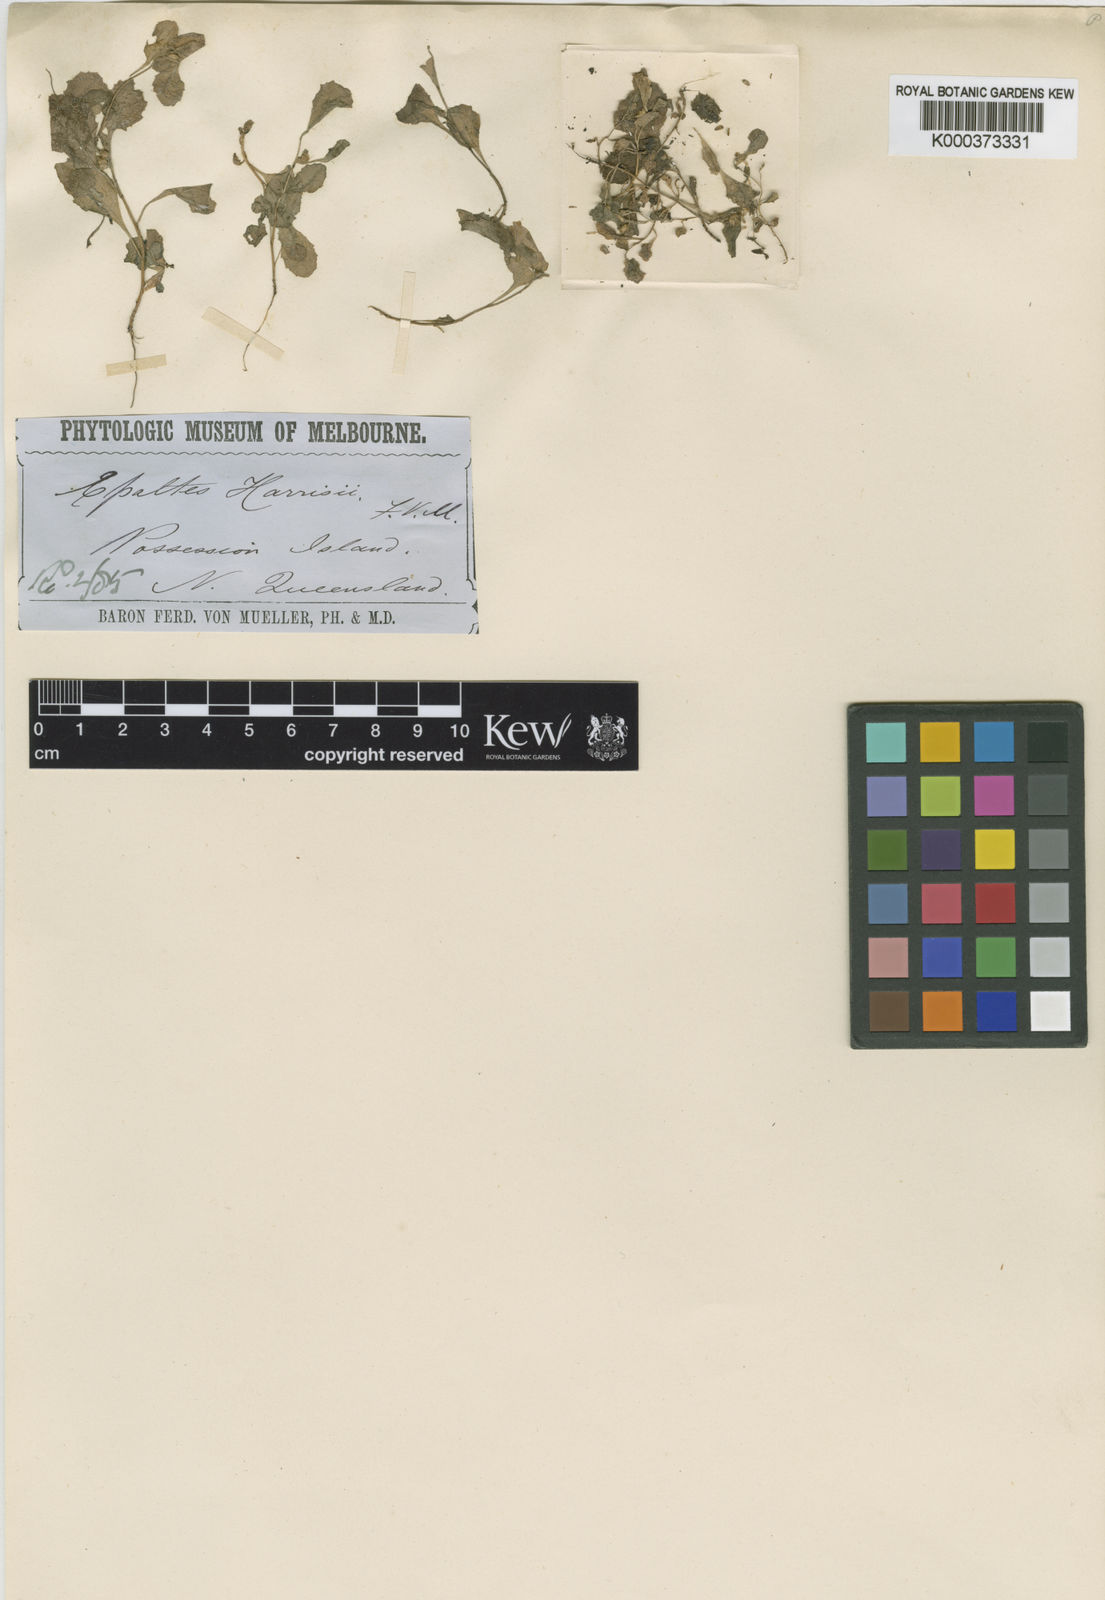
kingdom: Plantae
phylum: Tracheophyta
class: Magnoliopsida
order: Asterales
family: Asteraceae
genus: Sphaeromorphaea
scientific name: Sphaeromorphaea australis
